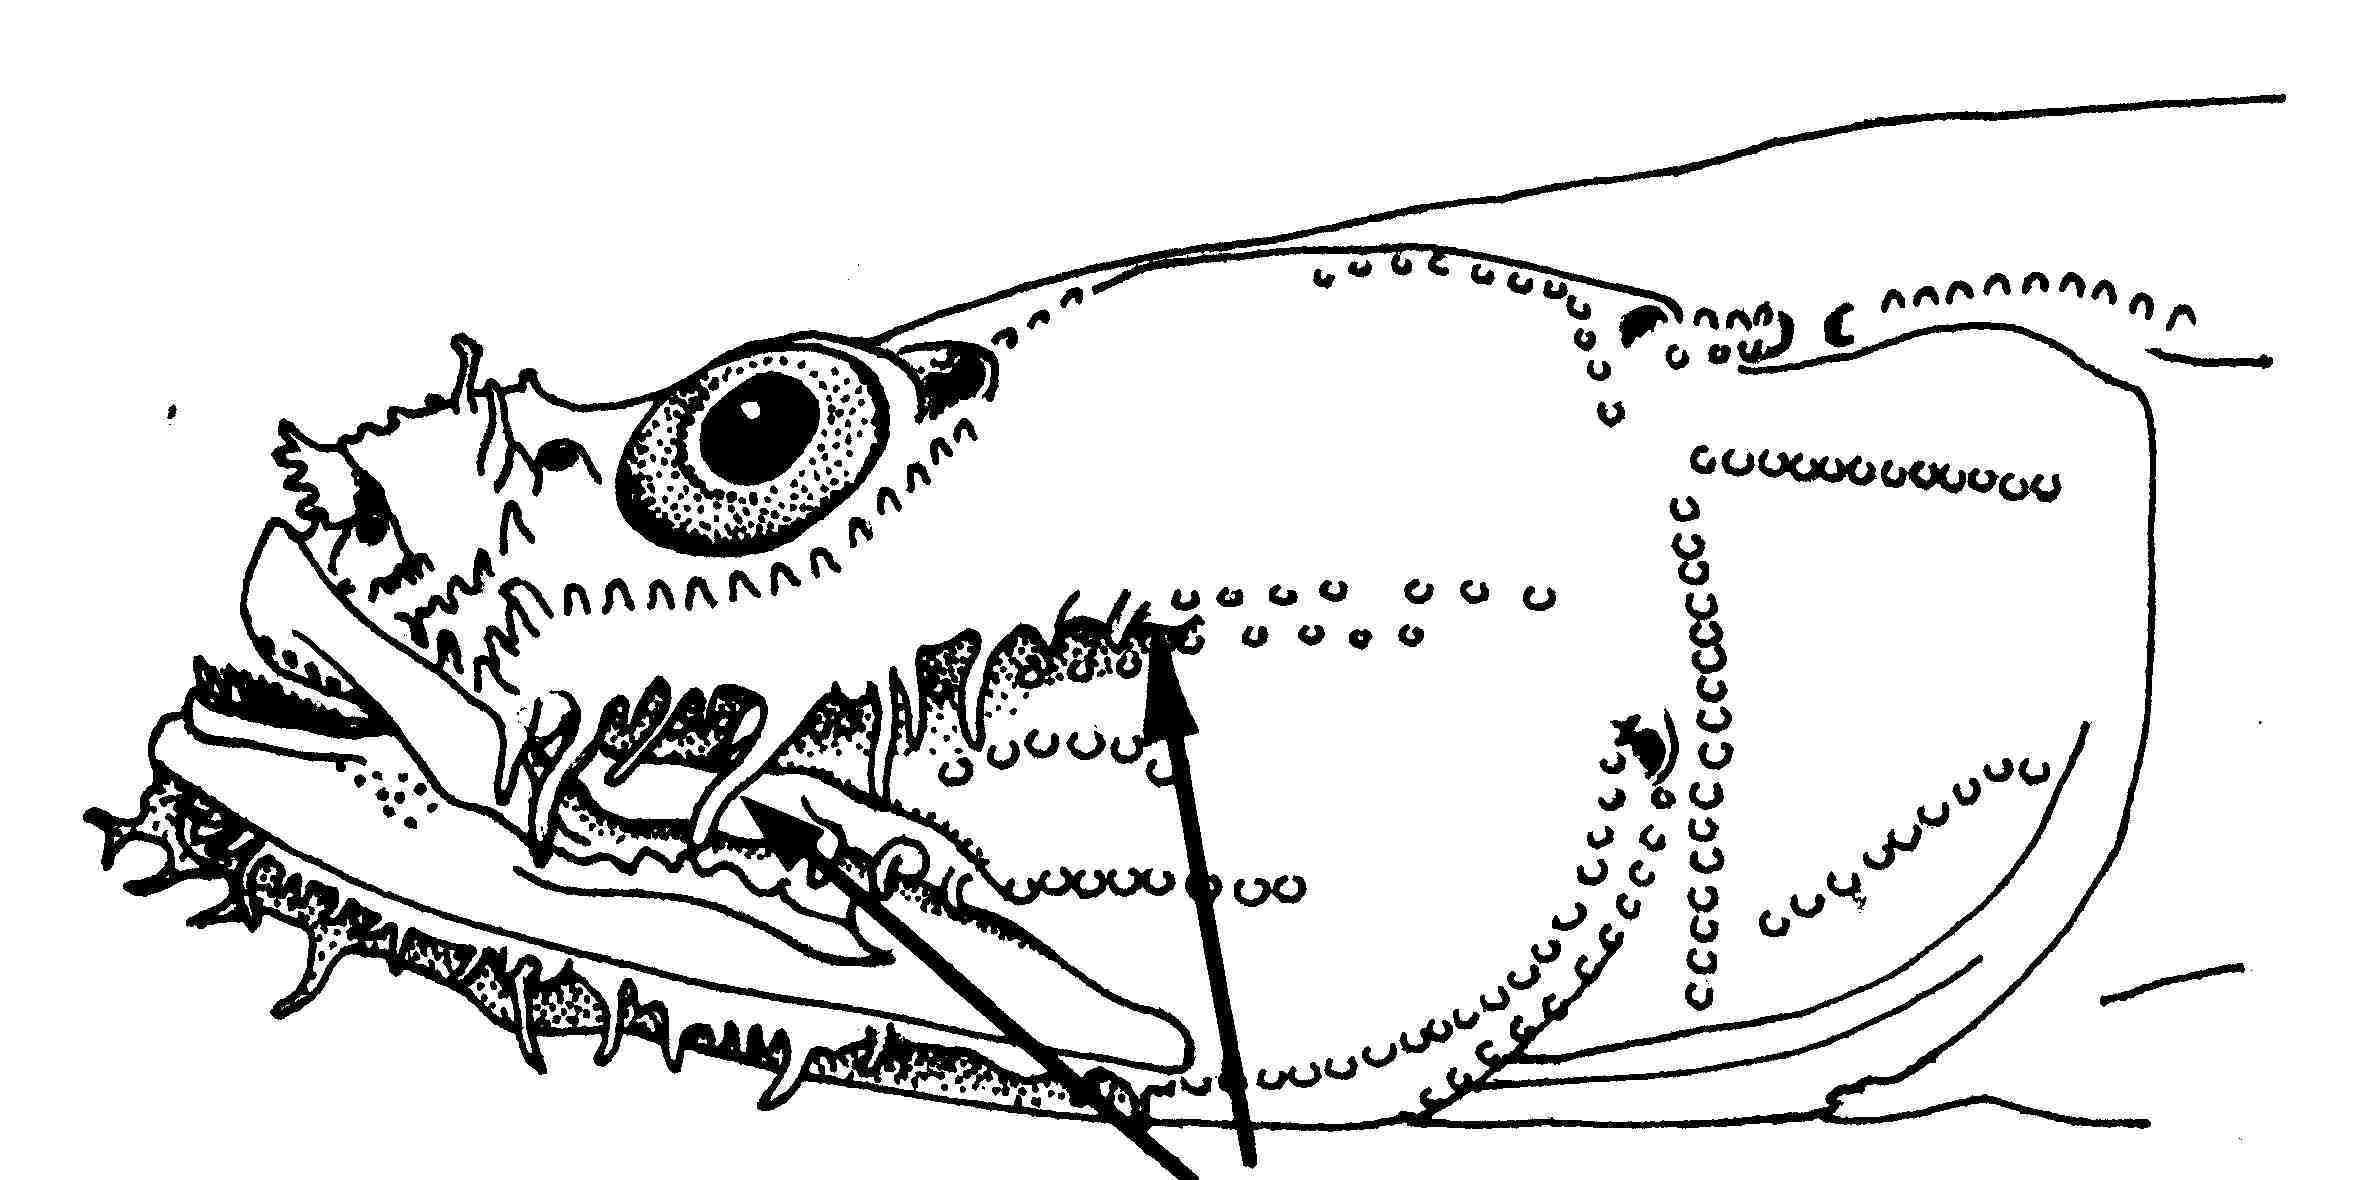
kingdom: Animalia
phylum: Chordata
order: Perciformes
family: Gobiidae
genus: Gobiopsis
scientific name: Gobiopsis pinto
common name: Snakehead goby
